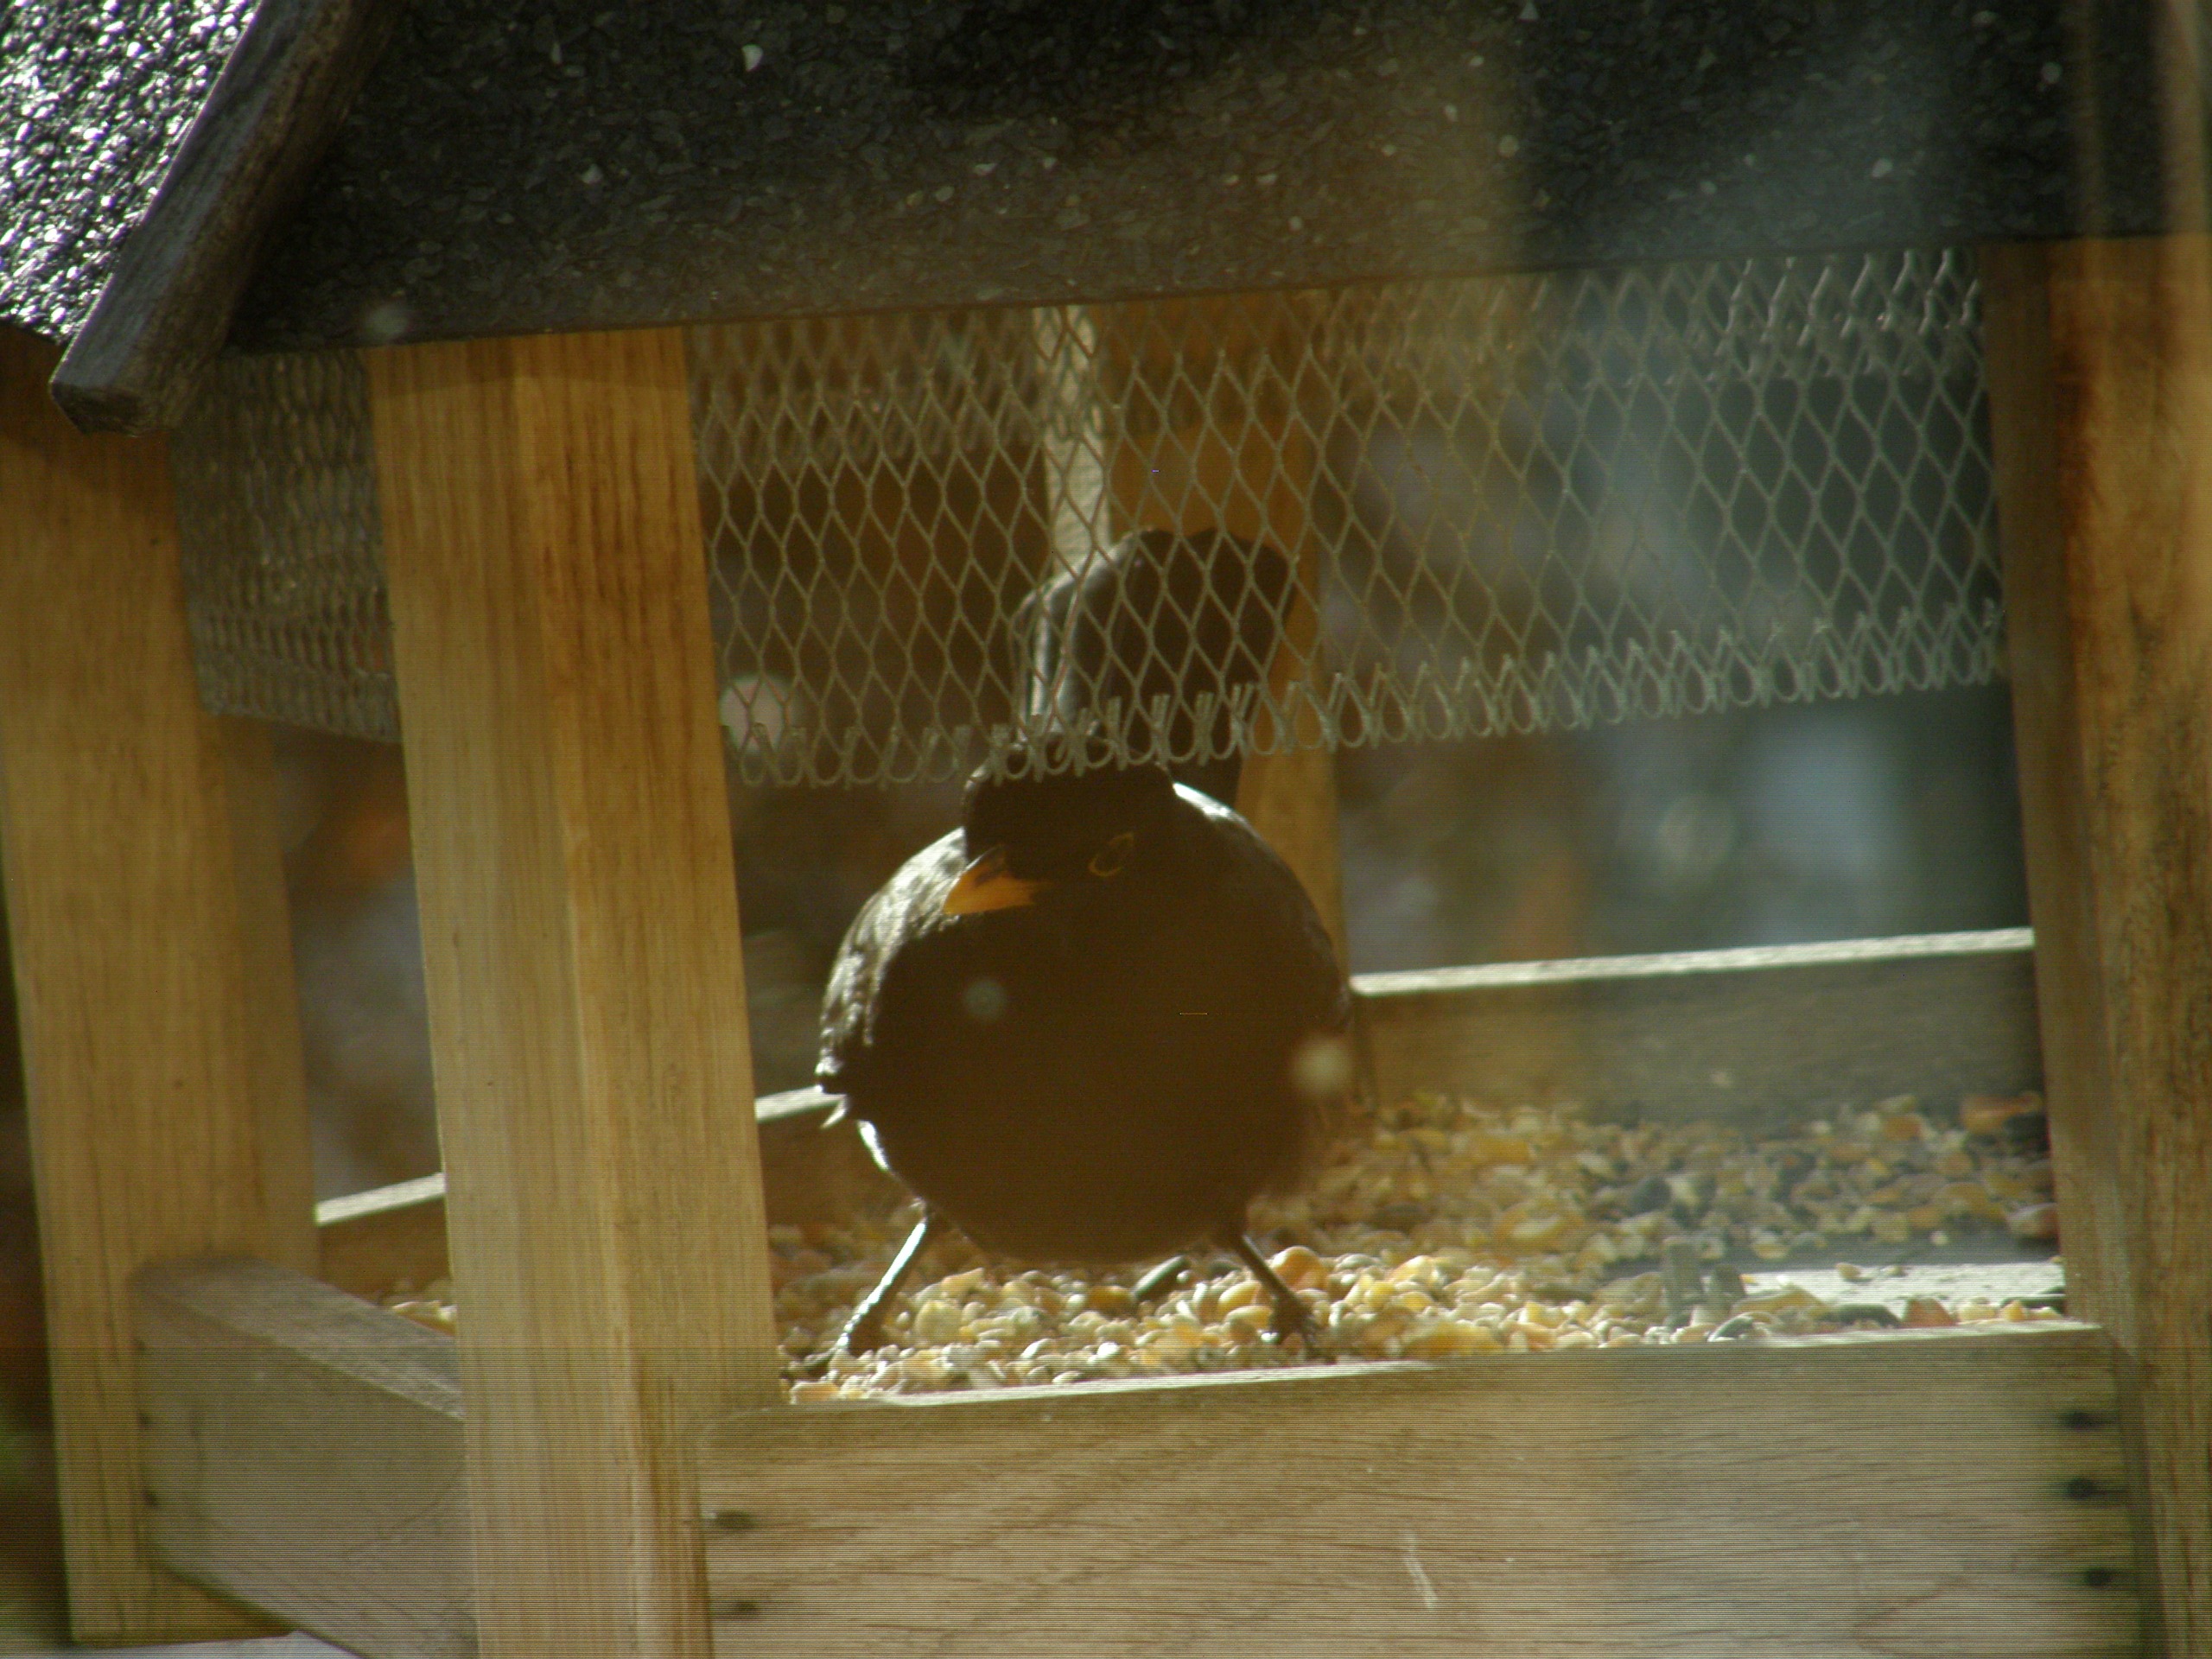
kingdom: Animalia
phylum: Chordata
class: Aves
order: Passeriformes
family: Turdidae
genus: Turdus
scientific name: Turdus merula
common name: Solsort
